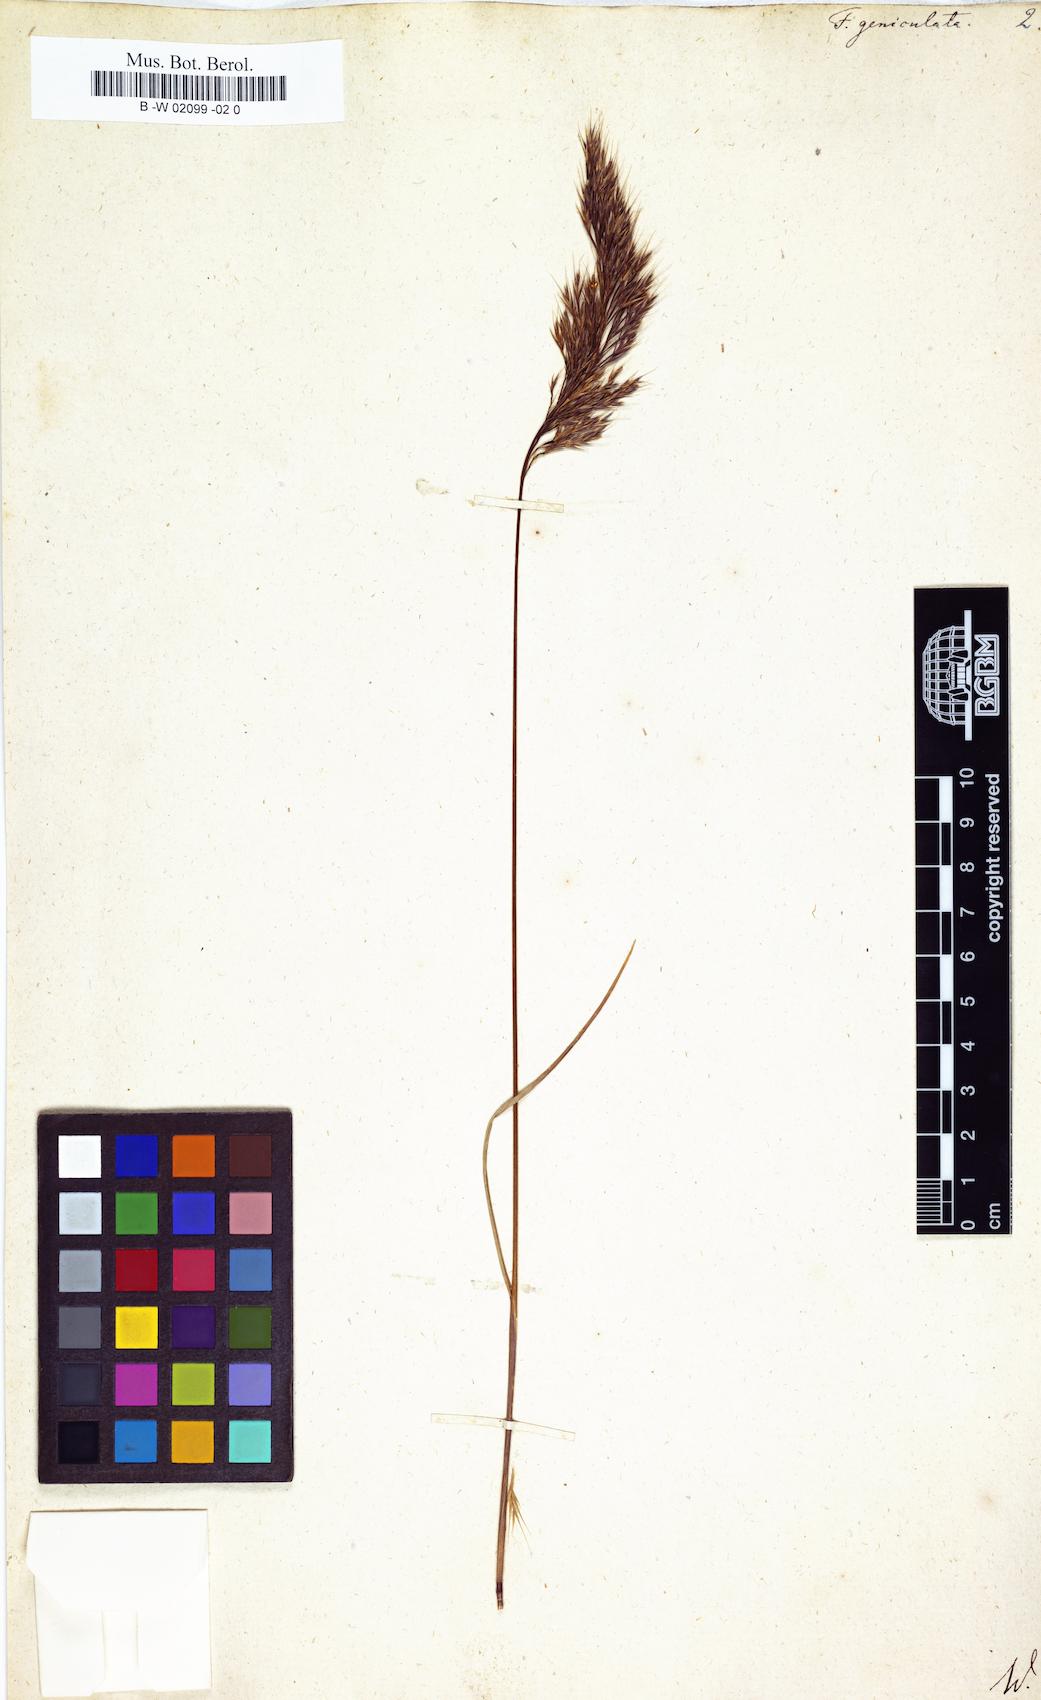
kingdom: Plantae
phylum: Tracheophyta
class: Liliopsida
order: Poales
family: Poaceae
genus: Festuca
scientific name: Festuca geniculata
